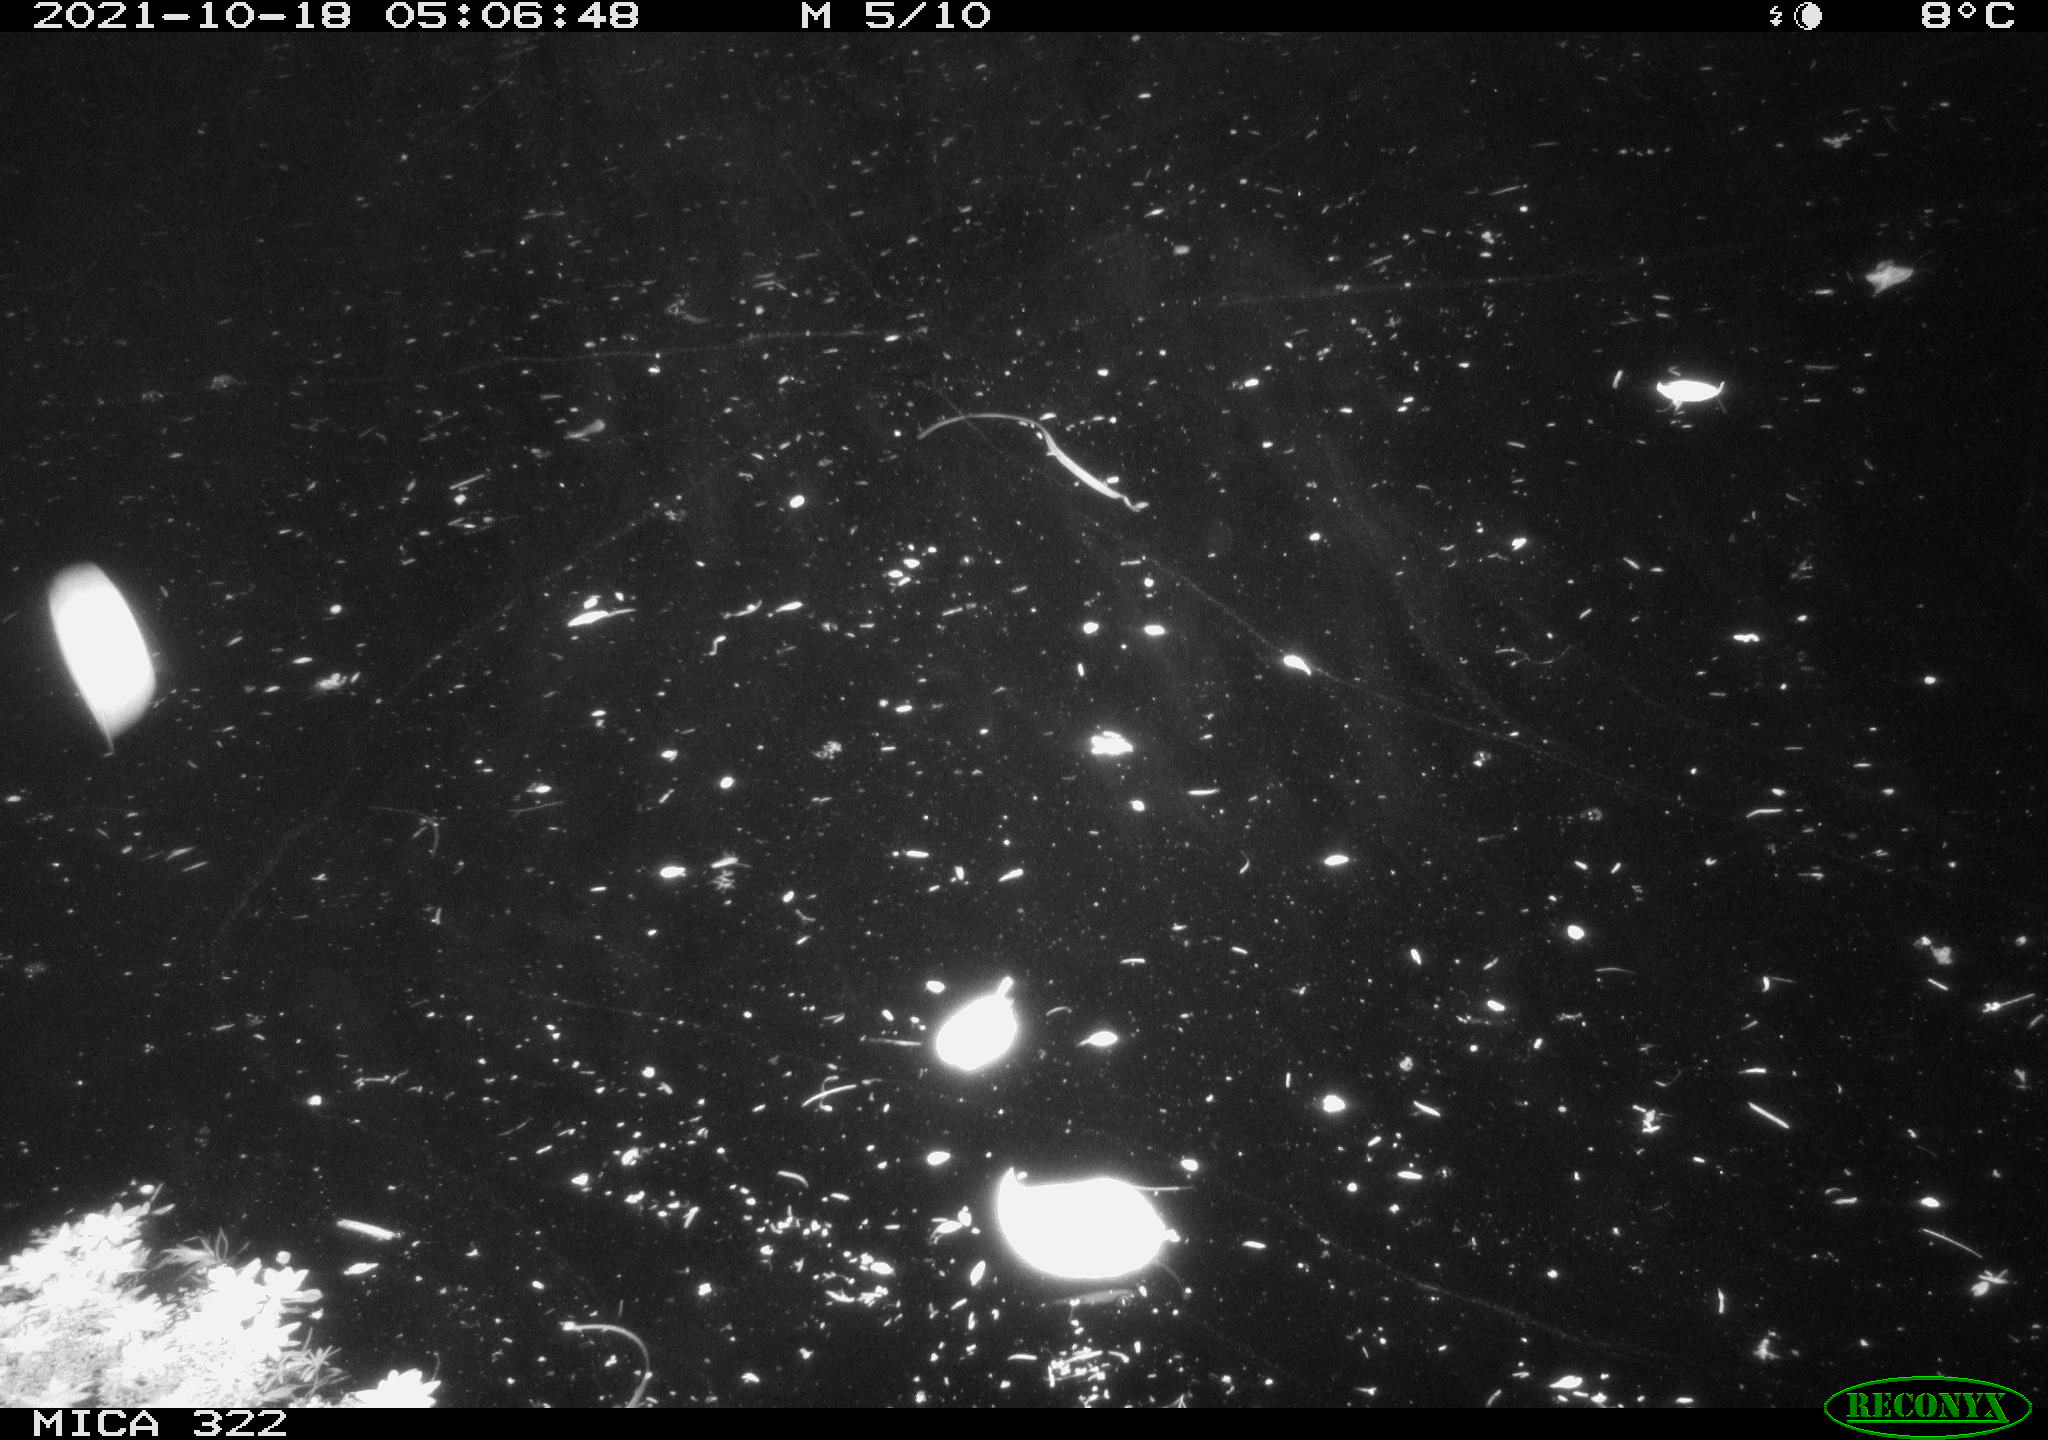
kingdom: Animalia
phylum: Chordata
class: Mammalia
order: Rodentia
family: Muridae
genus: Rattus
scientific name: Rattus norvegicus
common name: Brown rat
